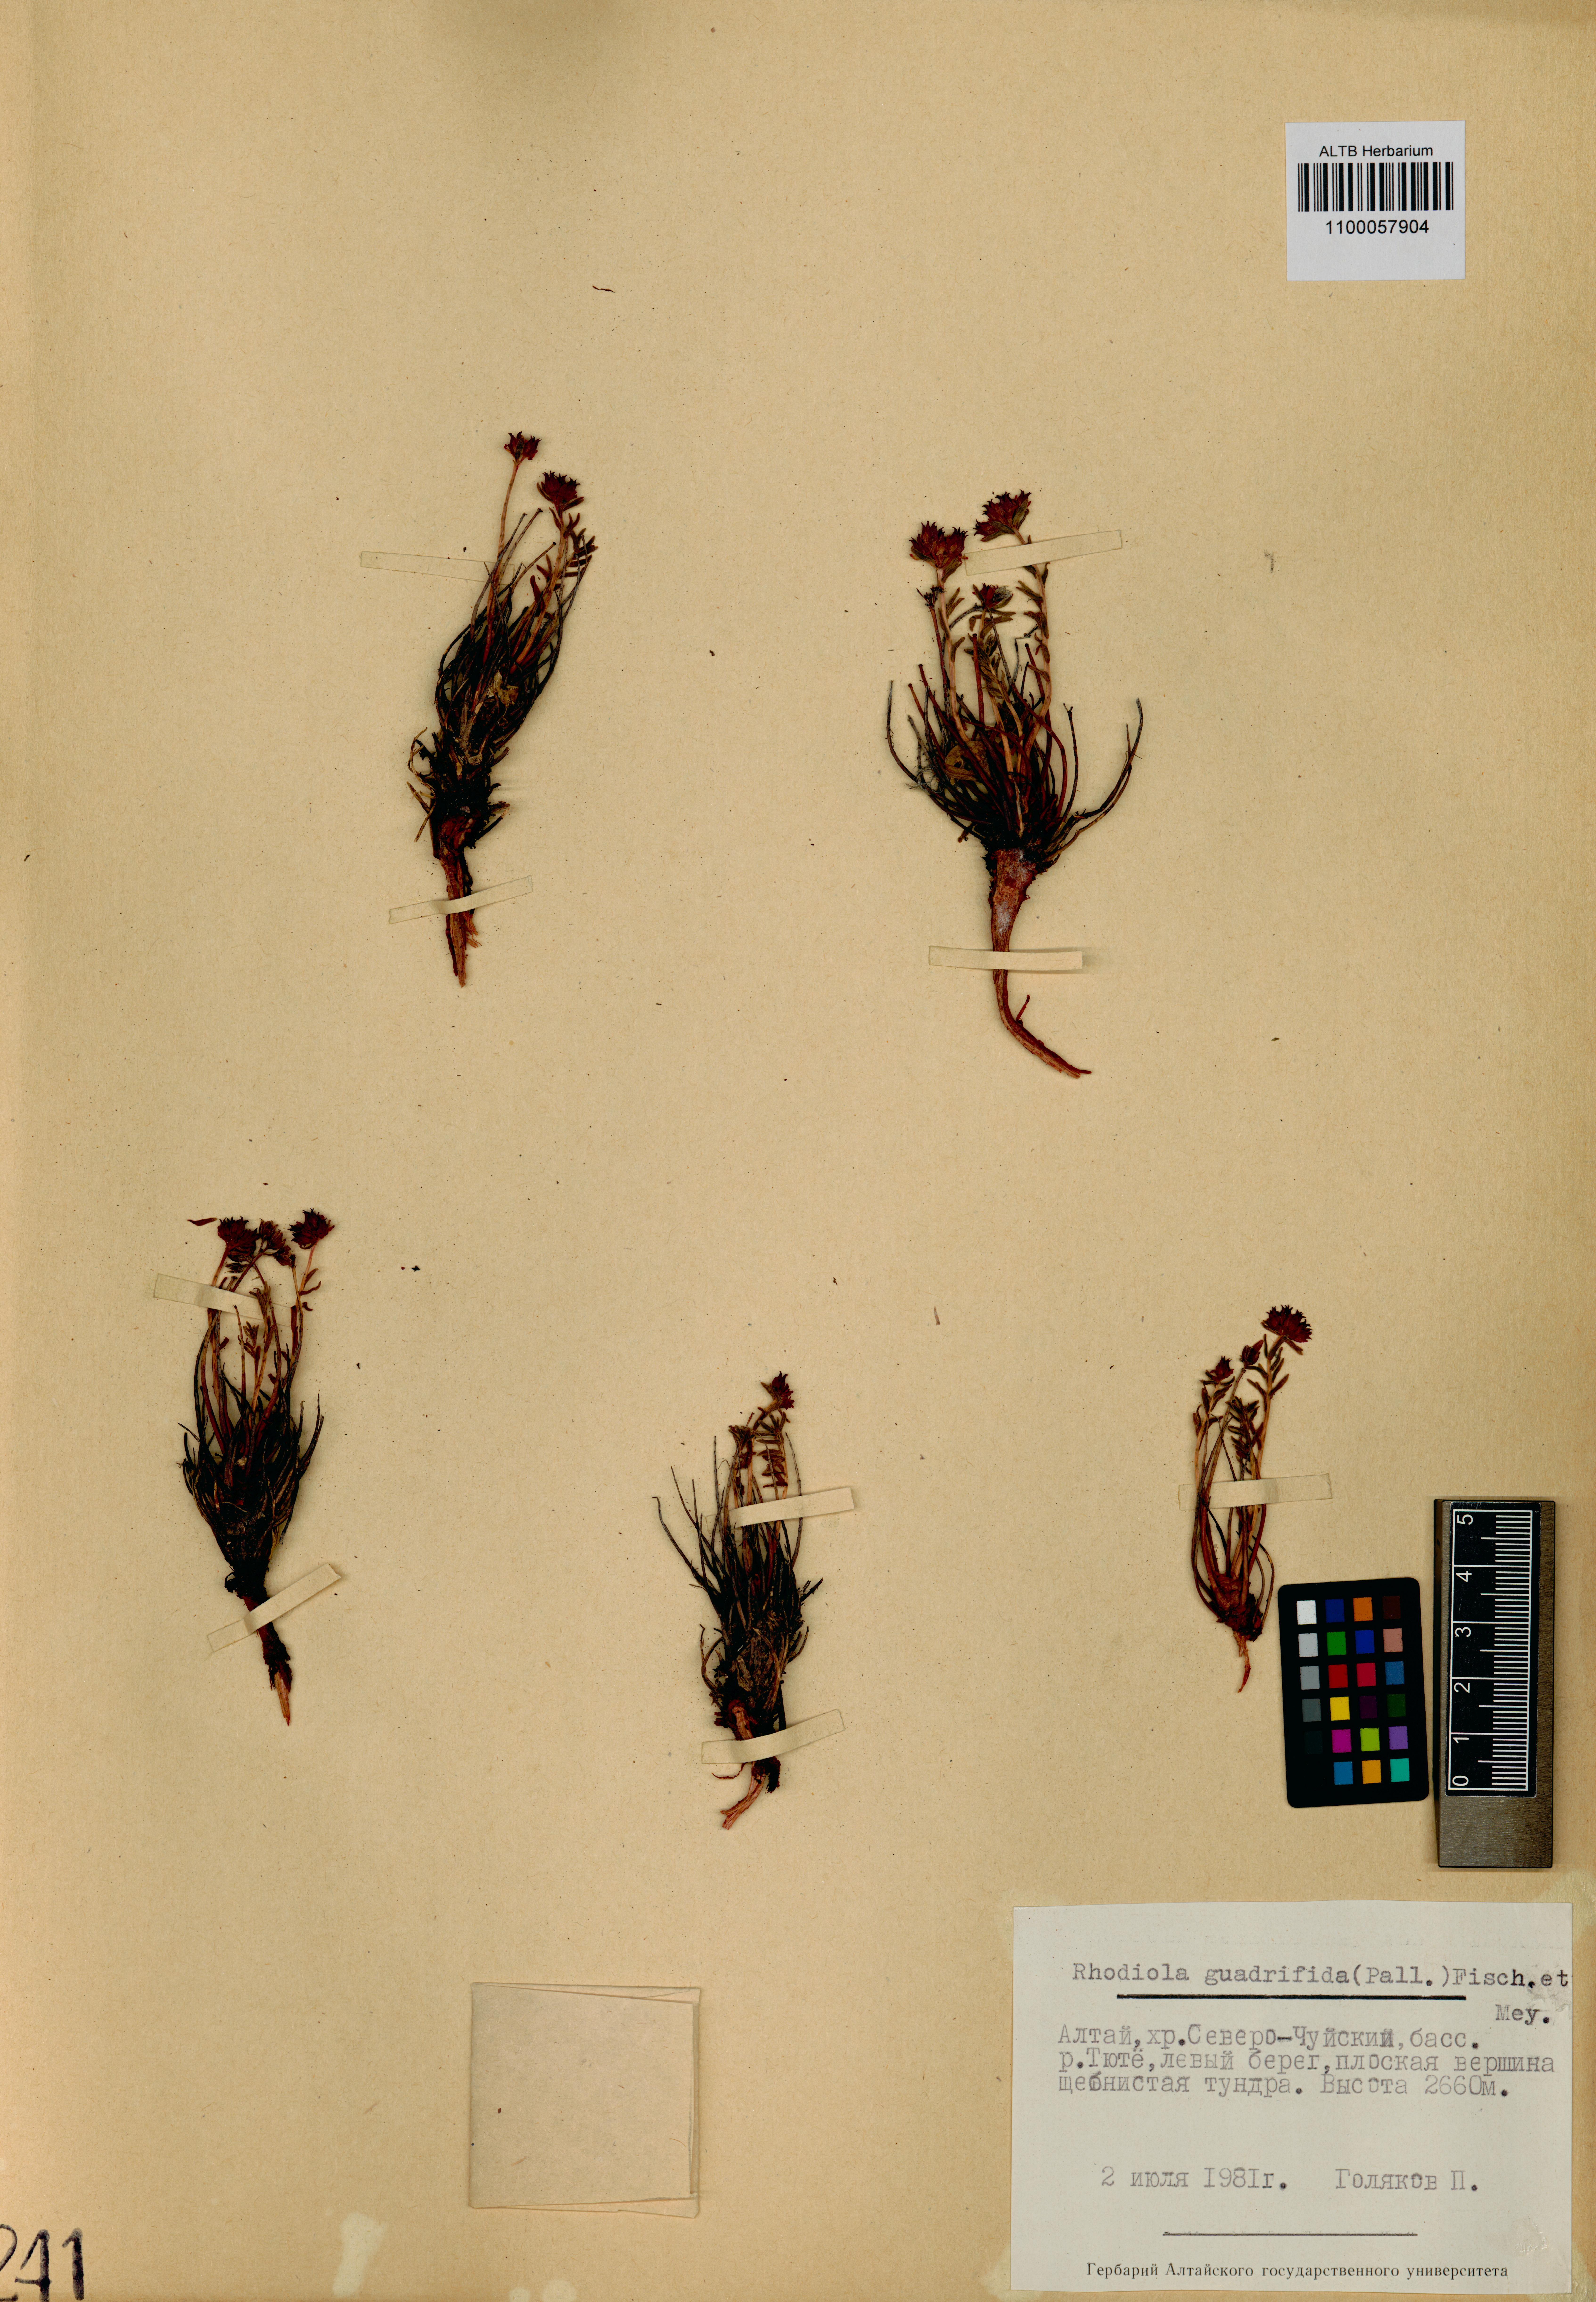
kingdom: Plantae
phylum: Tracheophyta
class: Magnoliopsida
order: Saxifragales
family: Crassulaceae
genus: Rhodiola
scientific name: Rhodiola quadrifida
